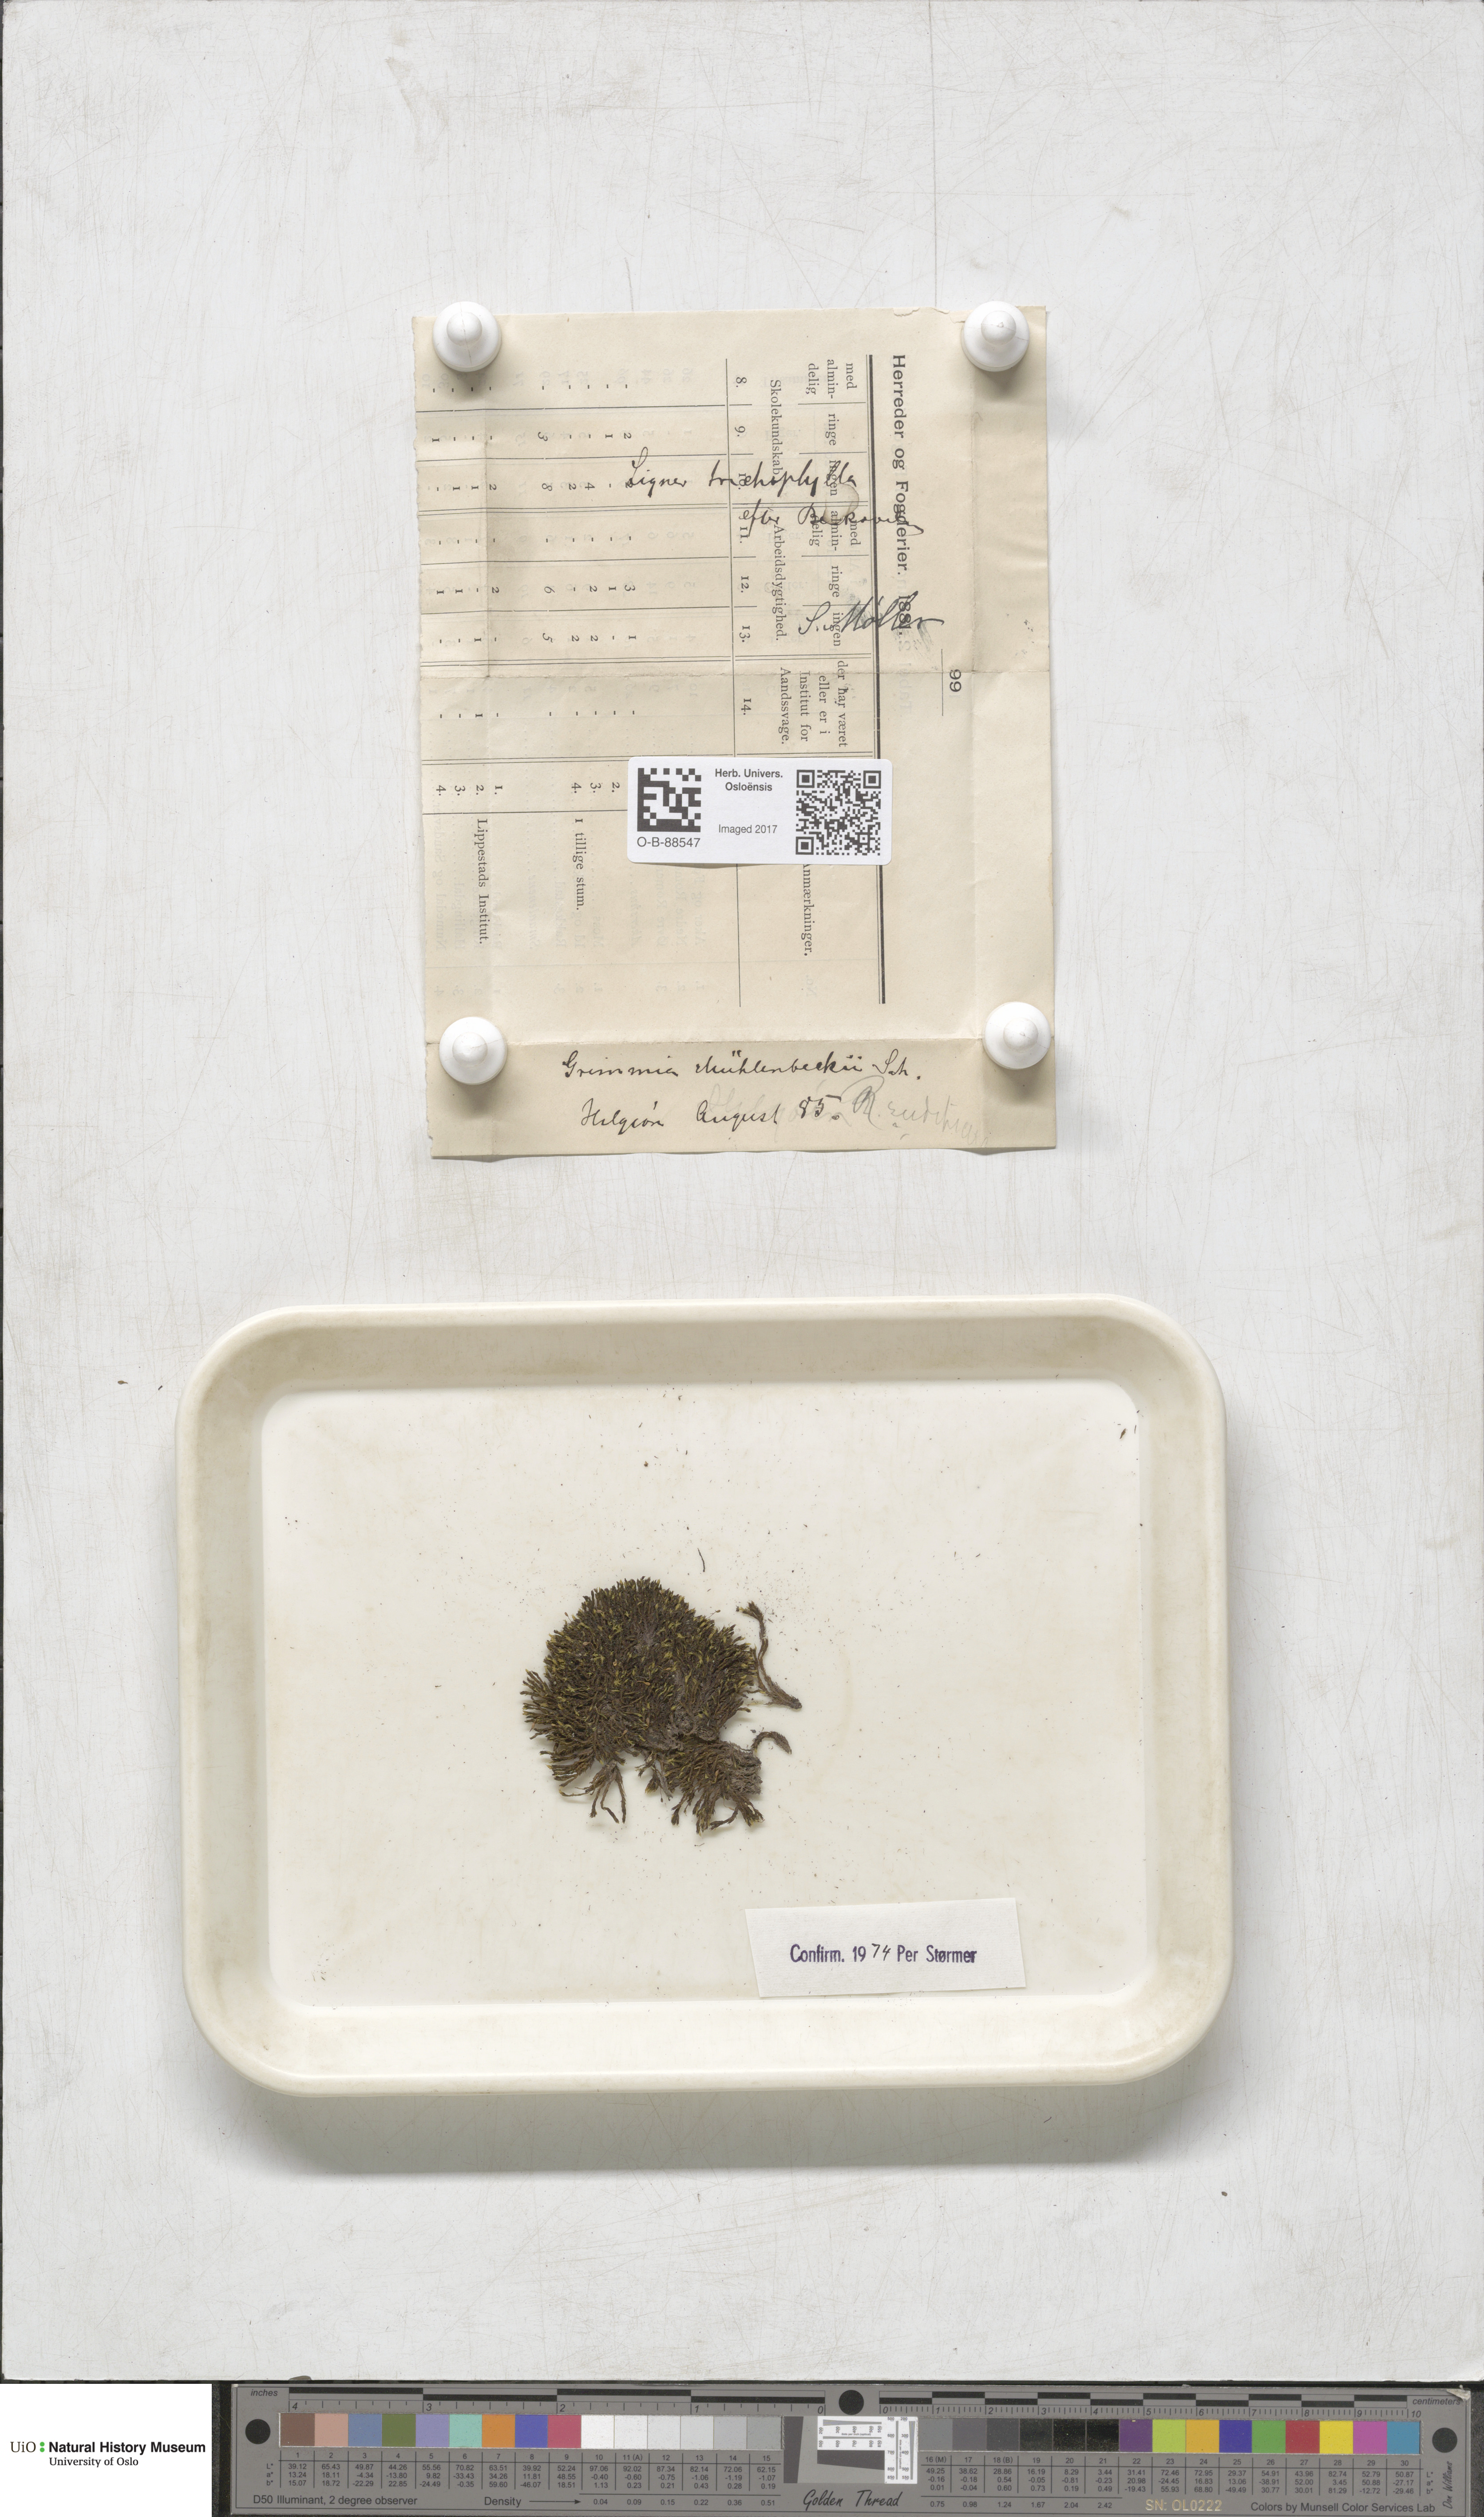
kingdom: Plantae
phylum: Bryophyta
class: Bryopsida
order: Grimmiales
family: Grimmiaceae
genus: Grimmia
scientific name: Grimmia trichophylla
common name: Hair-pointed grimmia
